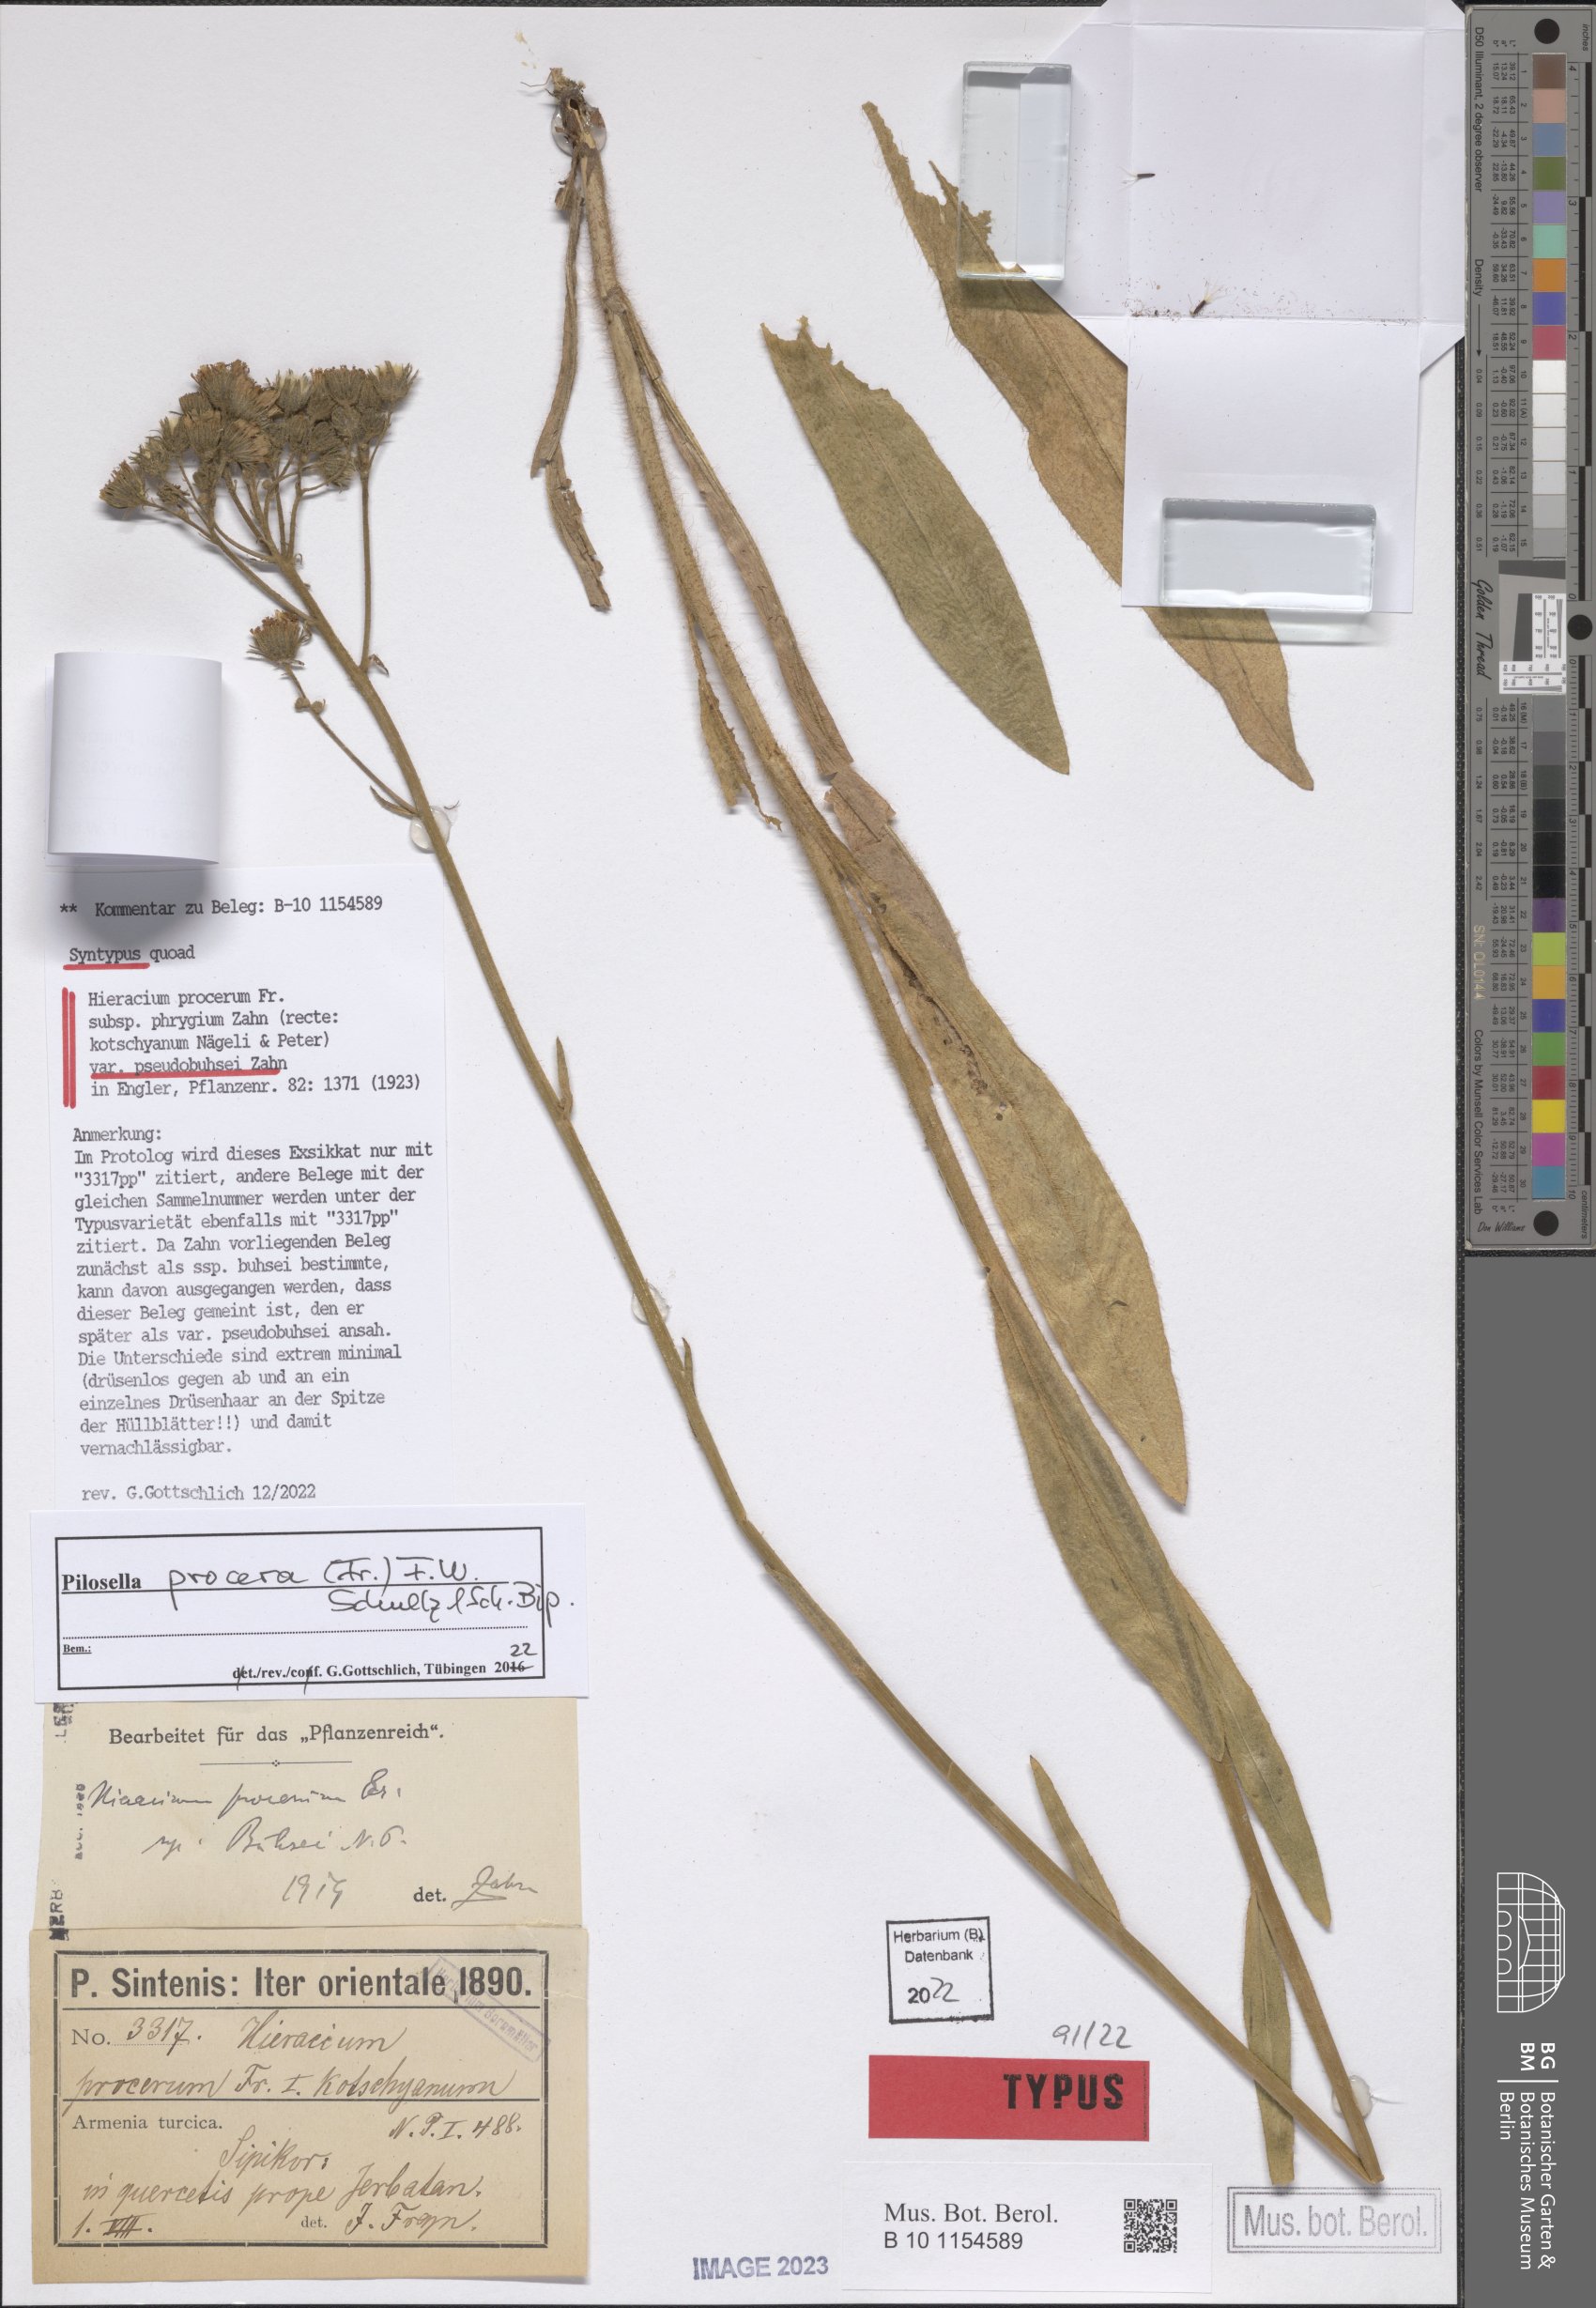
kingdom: Plantae
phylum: Tracheophyta
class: Magnoliopsida
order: Asterales
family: Asteraceae
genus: Pilosella
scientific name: Pilosella procera
